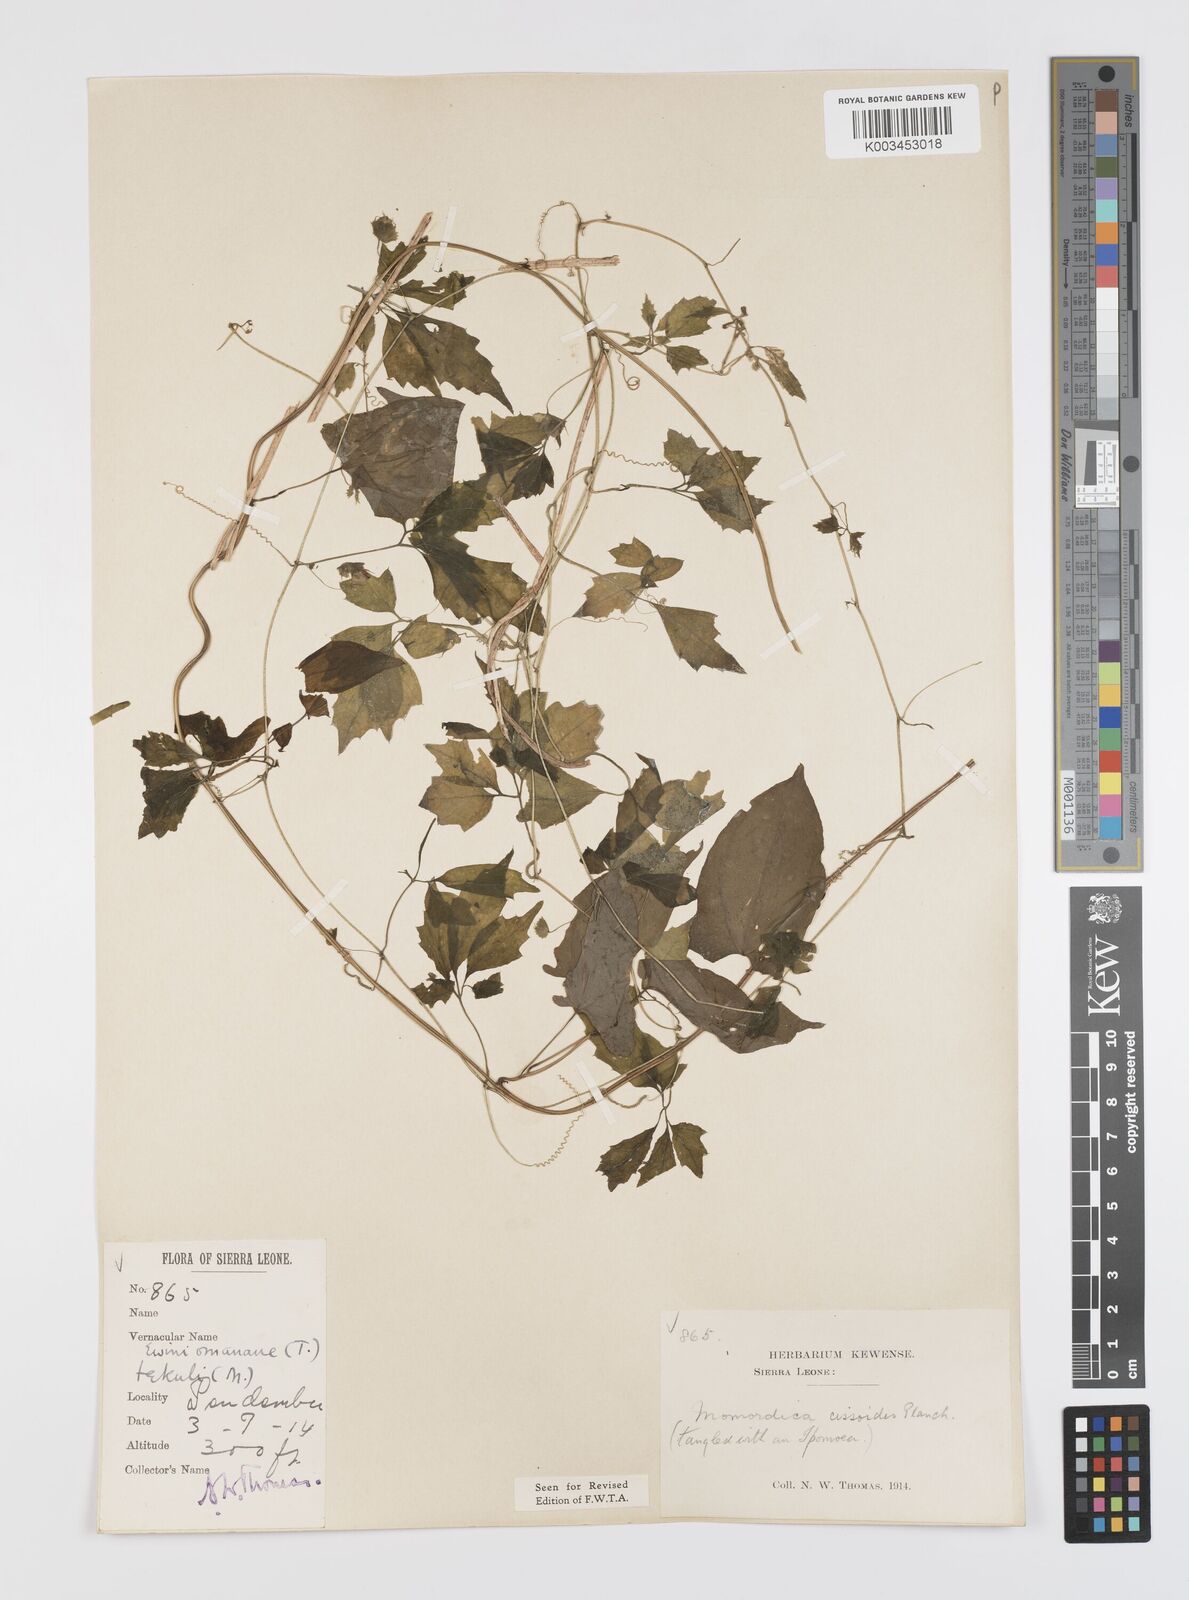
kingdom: Plantae
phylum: Tracheophyta
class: Magnoliopsida
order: Cucurbitales
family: Cucurbitaceae
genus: Momordica
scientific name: Momordica cissoides
